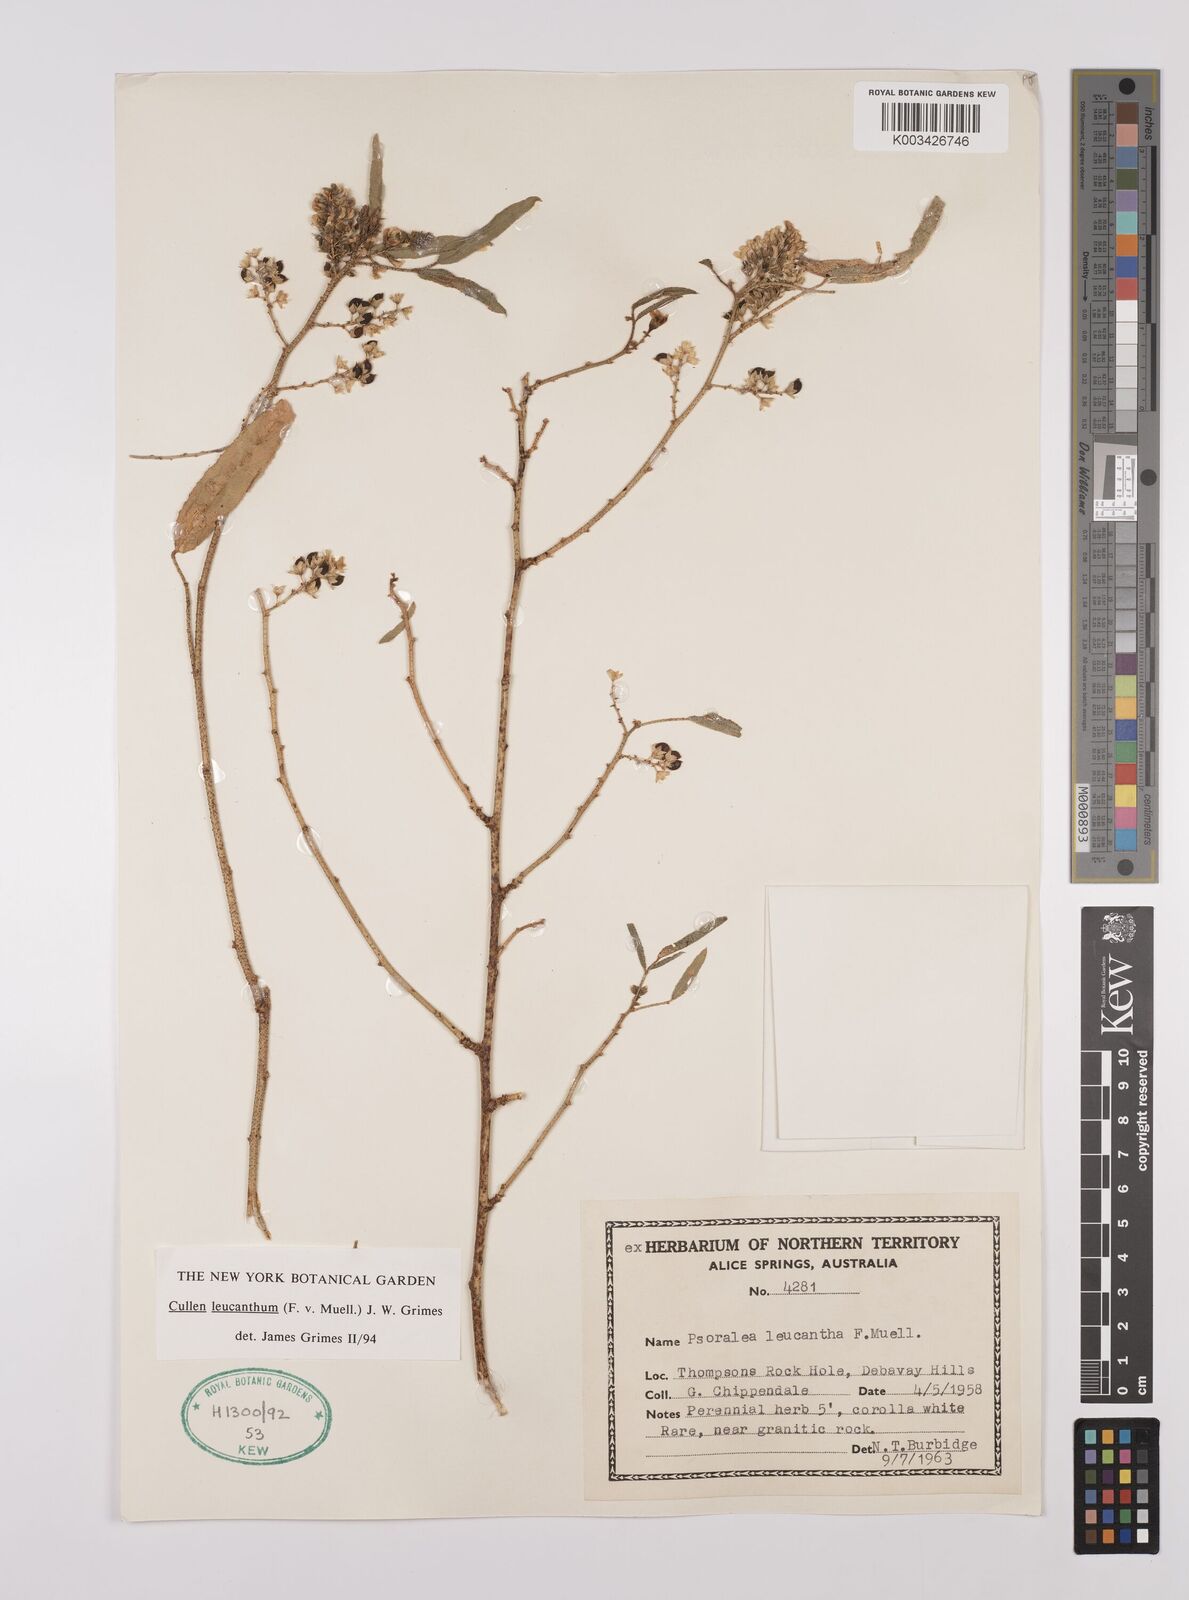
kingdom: Plantae
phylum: Tracheophyta
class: Magnoliopsida
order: Fabales
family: Fabaceae
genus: Cullen
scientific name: Cullen leucanthum
